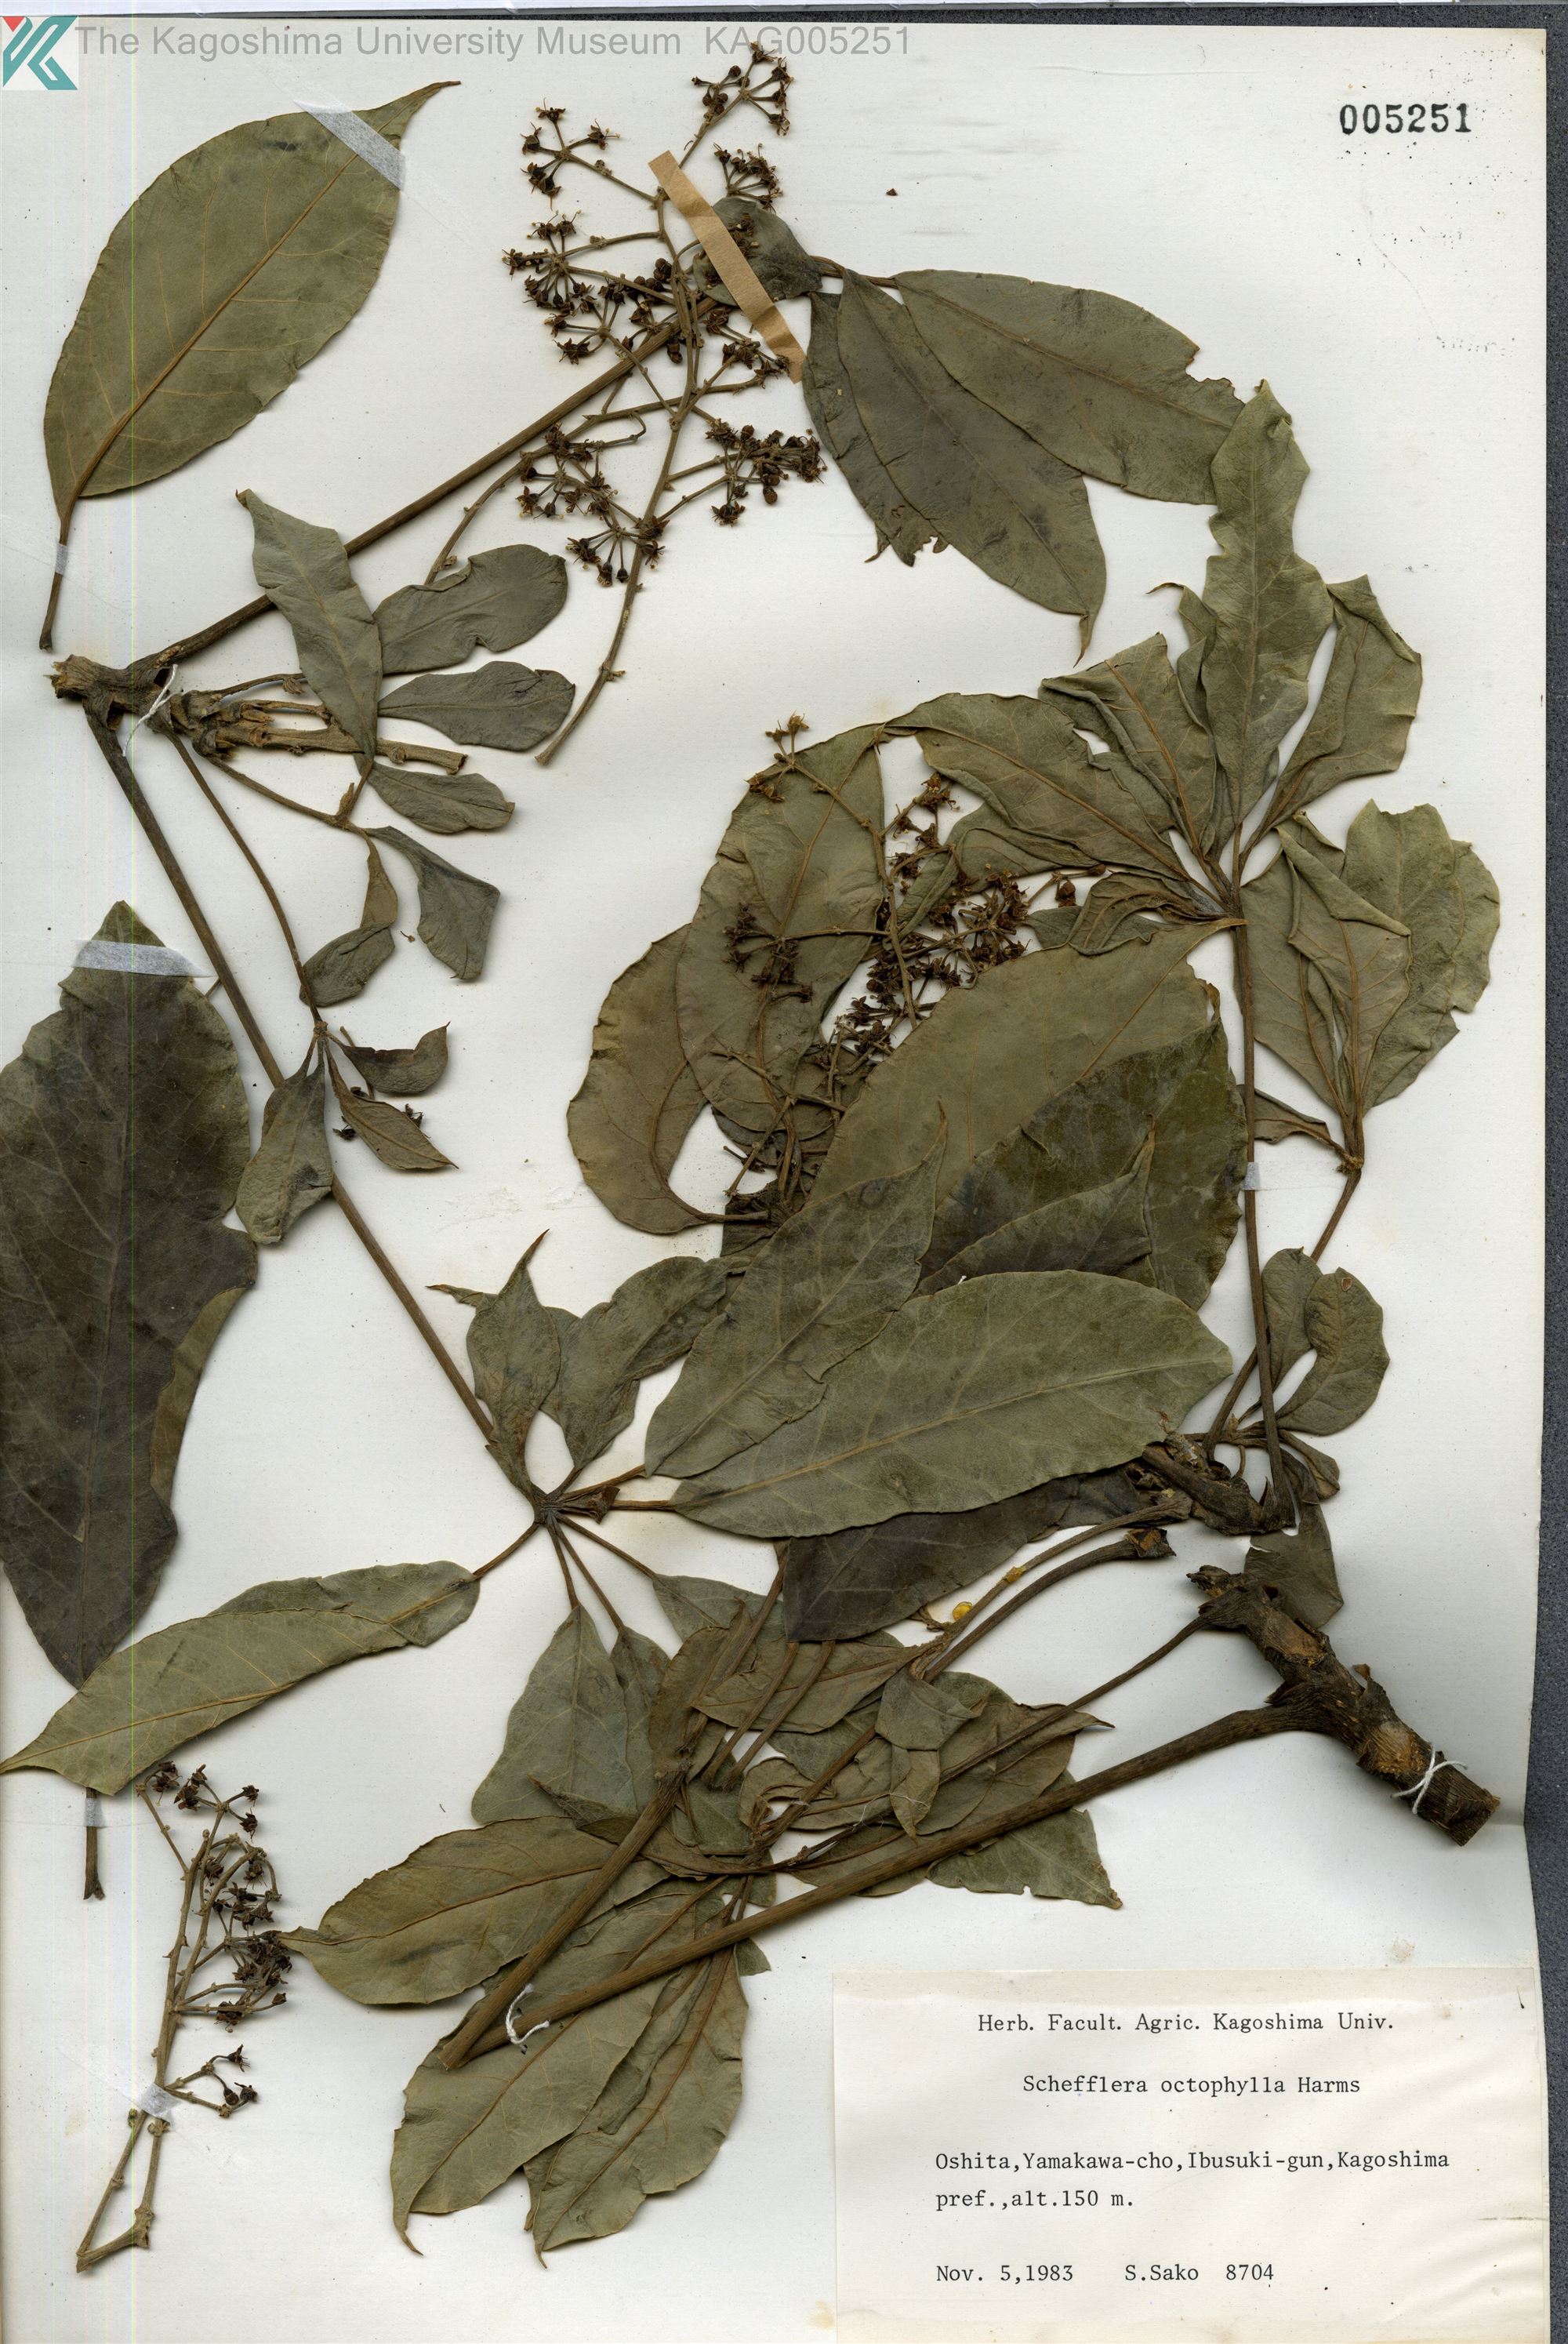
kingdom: Plantae
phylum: Tracheophyta
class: Magnoliopsida
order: Apiales
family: Araliaceae
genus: Heptapleurum
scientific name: Heptapleurum heptaphyllum
